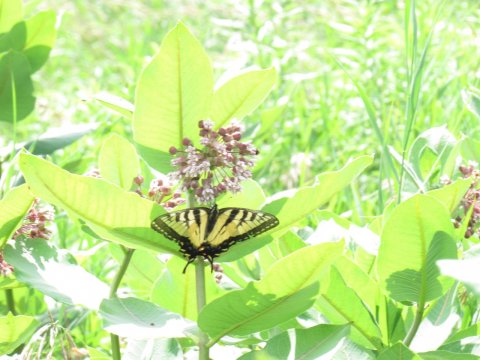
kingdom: Animalia
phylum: Arthropoda
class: Insecta
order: Lepidoptera
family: Papilionidae
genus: Pterourus
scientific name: Pterourus
